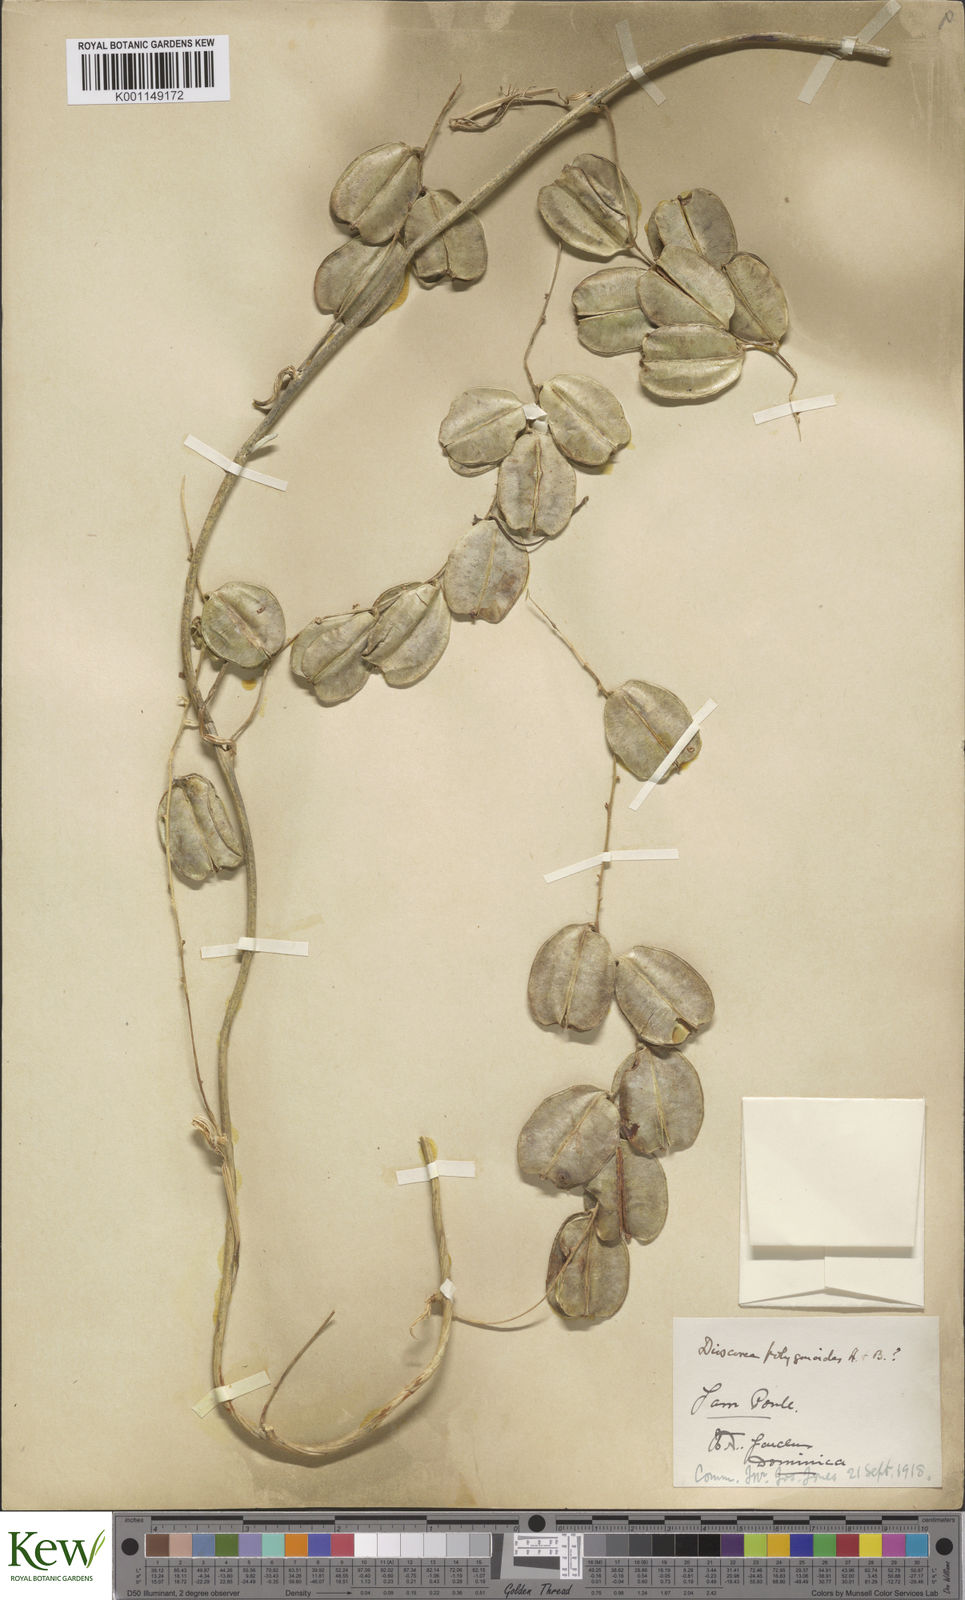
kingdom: Plantae
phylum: Tracheophyta
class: Liliopsida
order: Dioscoreales
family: Dioscoreaceae
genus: Dioscorea
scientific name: Dioscorea polygonoides
